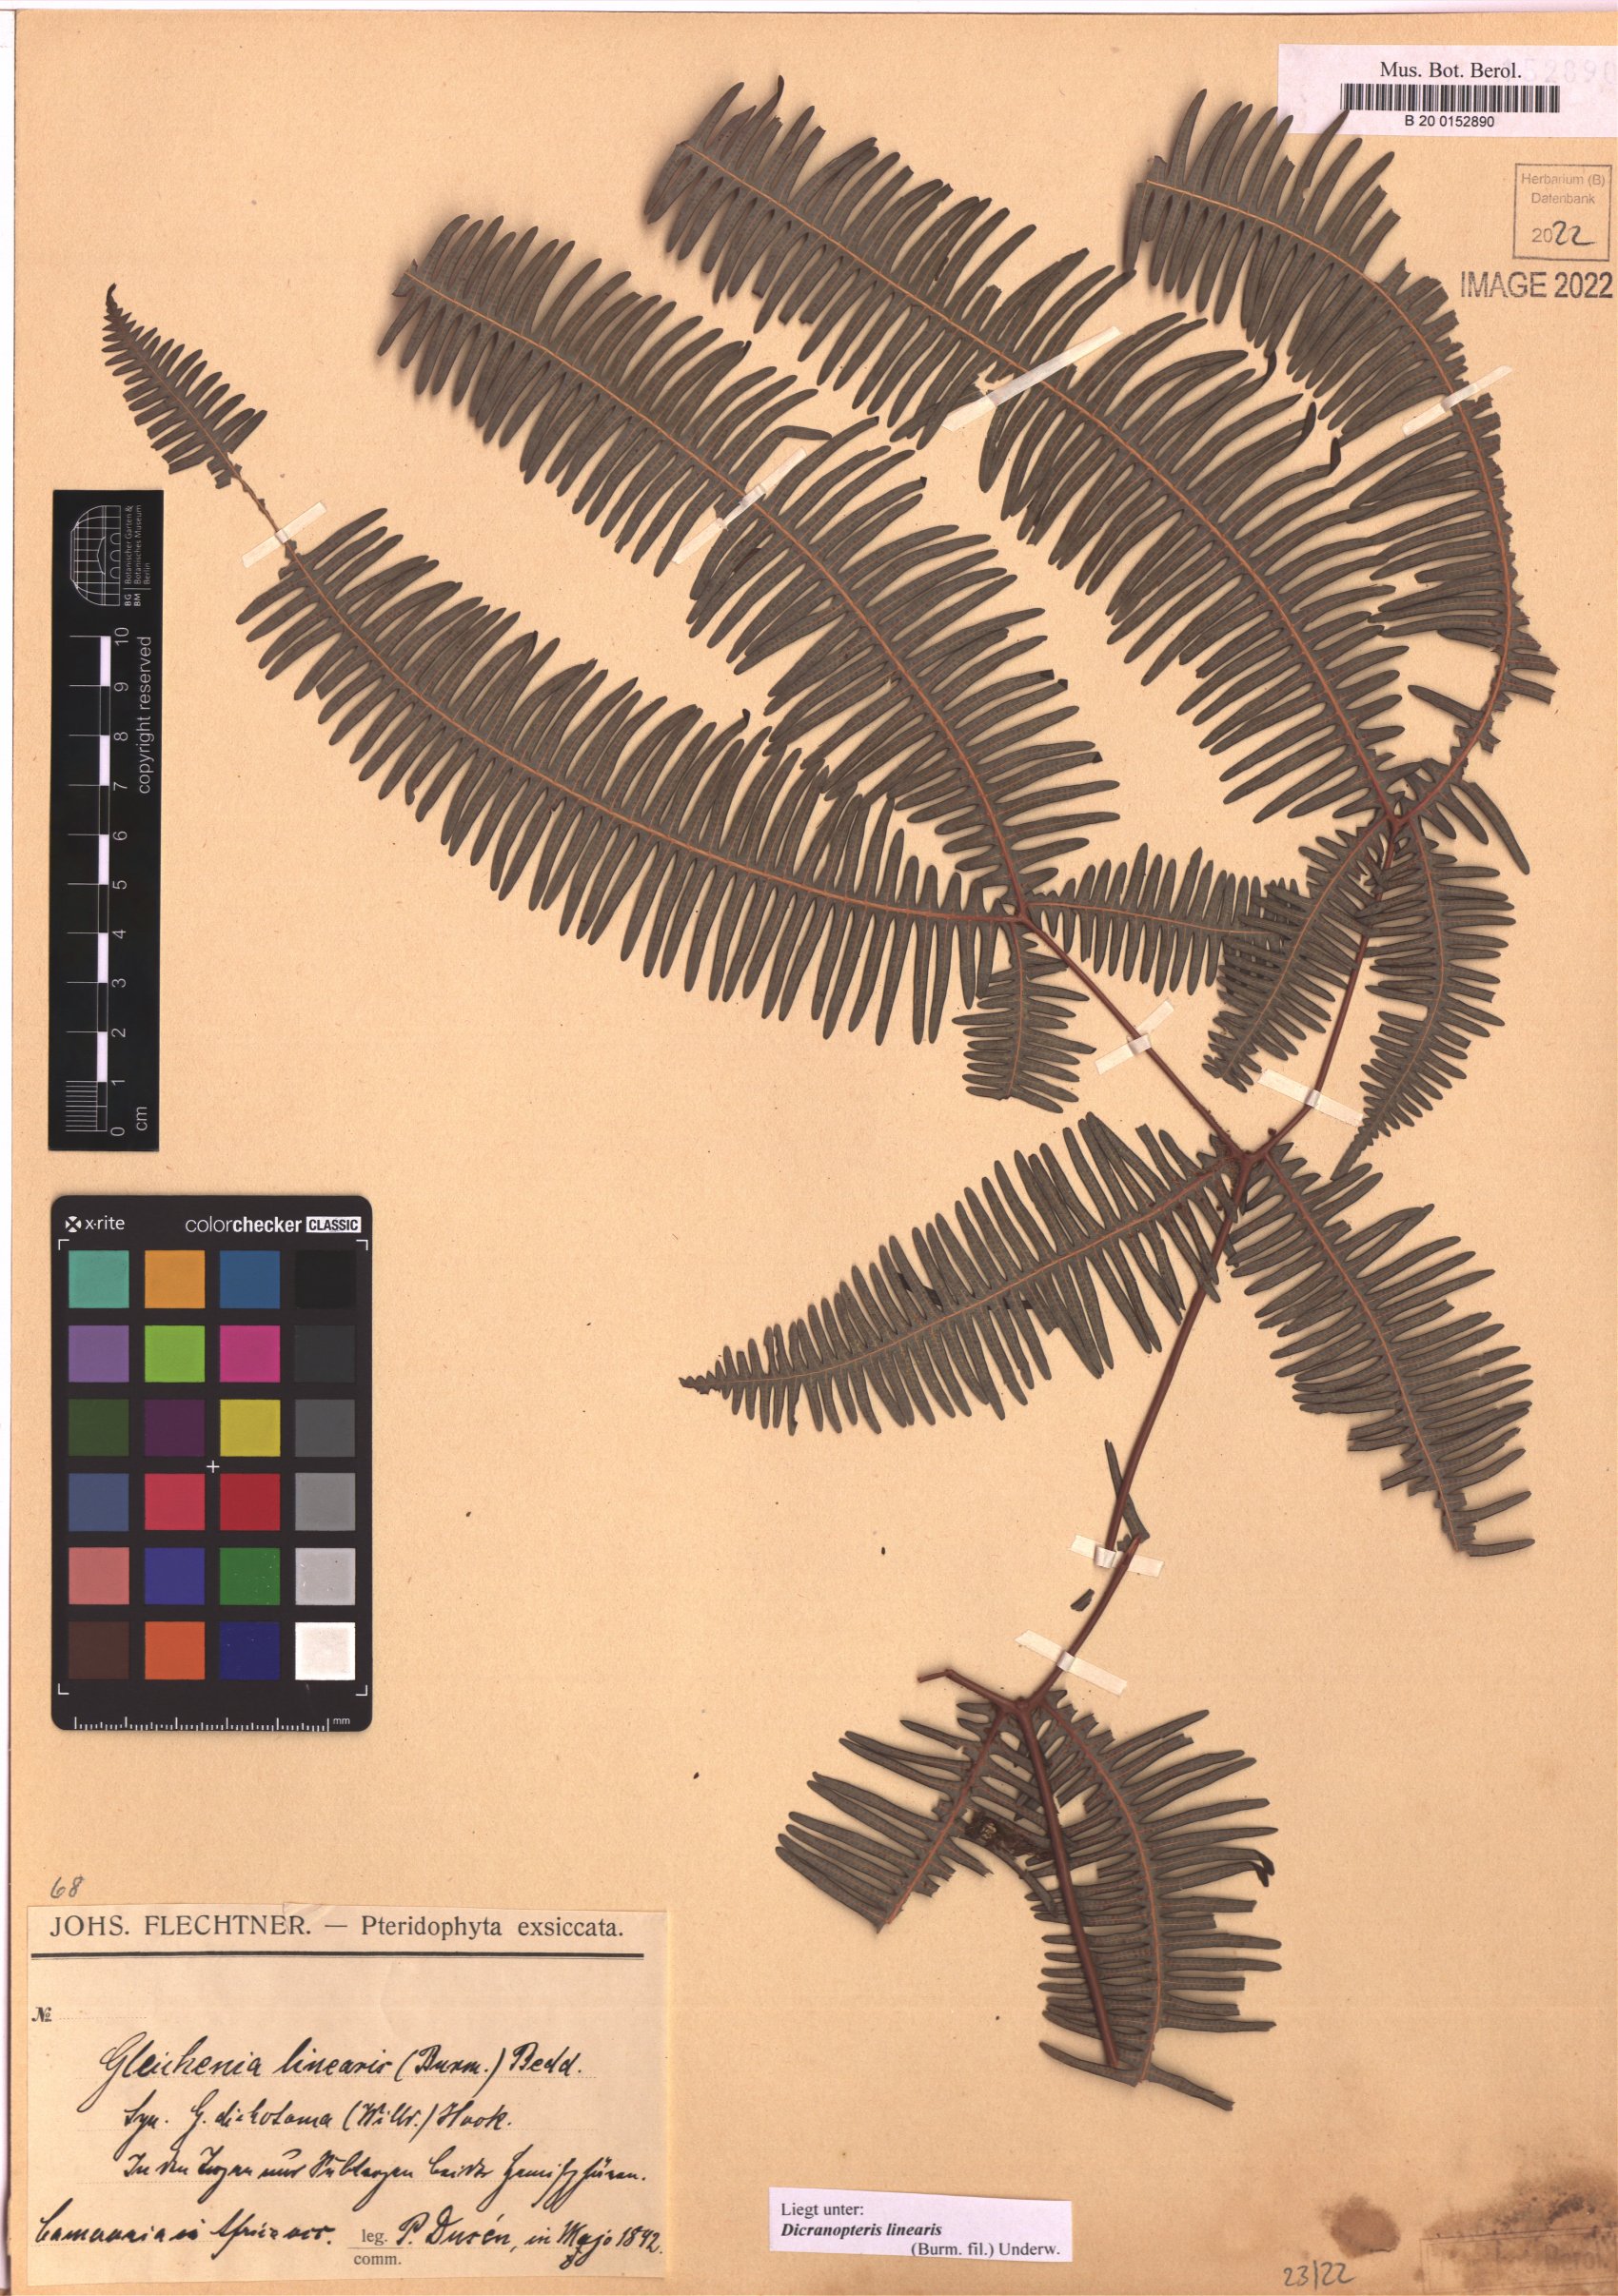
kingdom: Plantae
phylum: Tracheophyta
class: Polypodiopsida
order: Gleicheniales
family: Gleicheniaceae
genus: Dicranopteris
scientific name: Dicranopteris linearis
